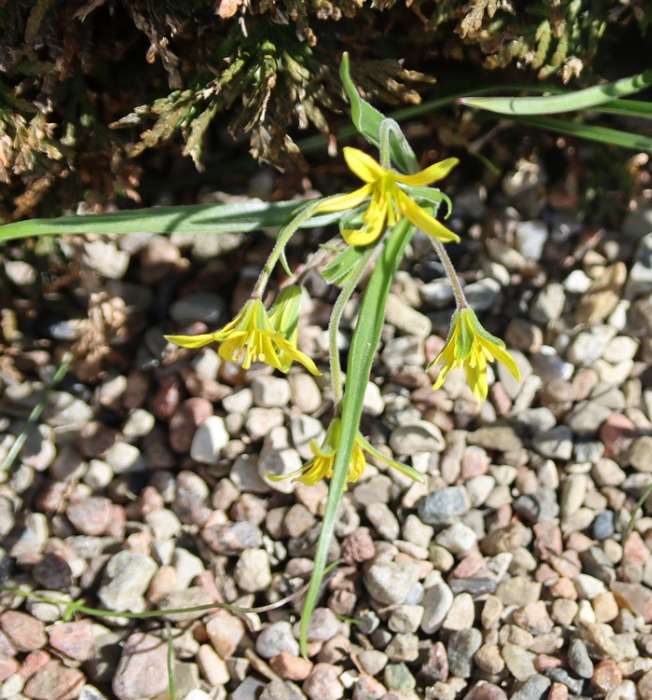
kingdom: Plantae
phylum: Tracheophyta
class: Liliopsida
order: Liliales
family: Liliaceae
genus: Gagea
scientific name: Gagea villosa
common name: Ager-guldstjerne
